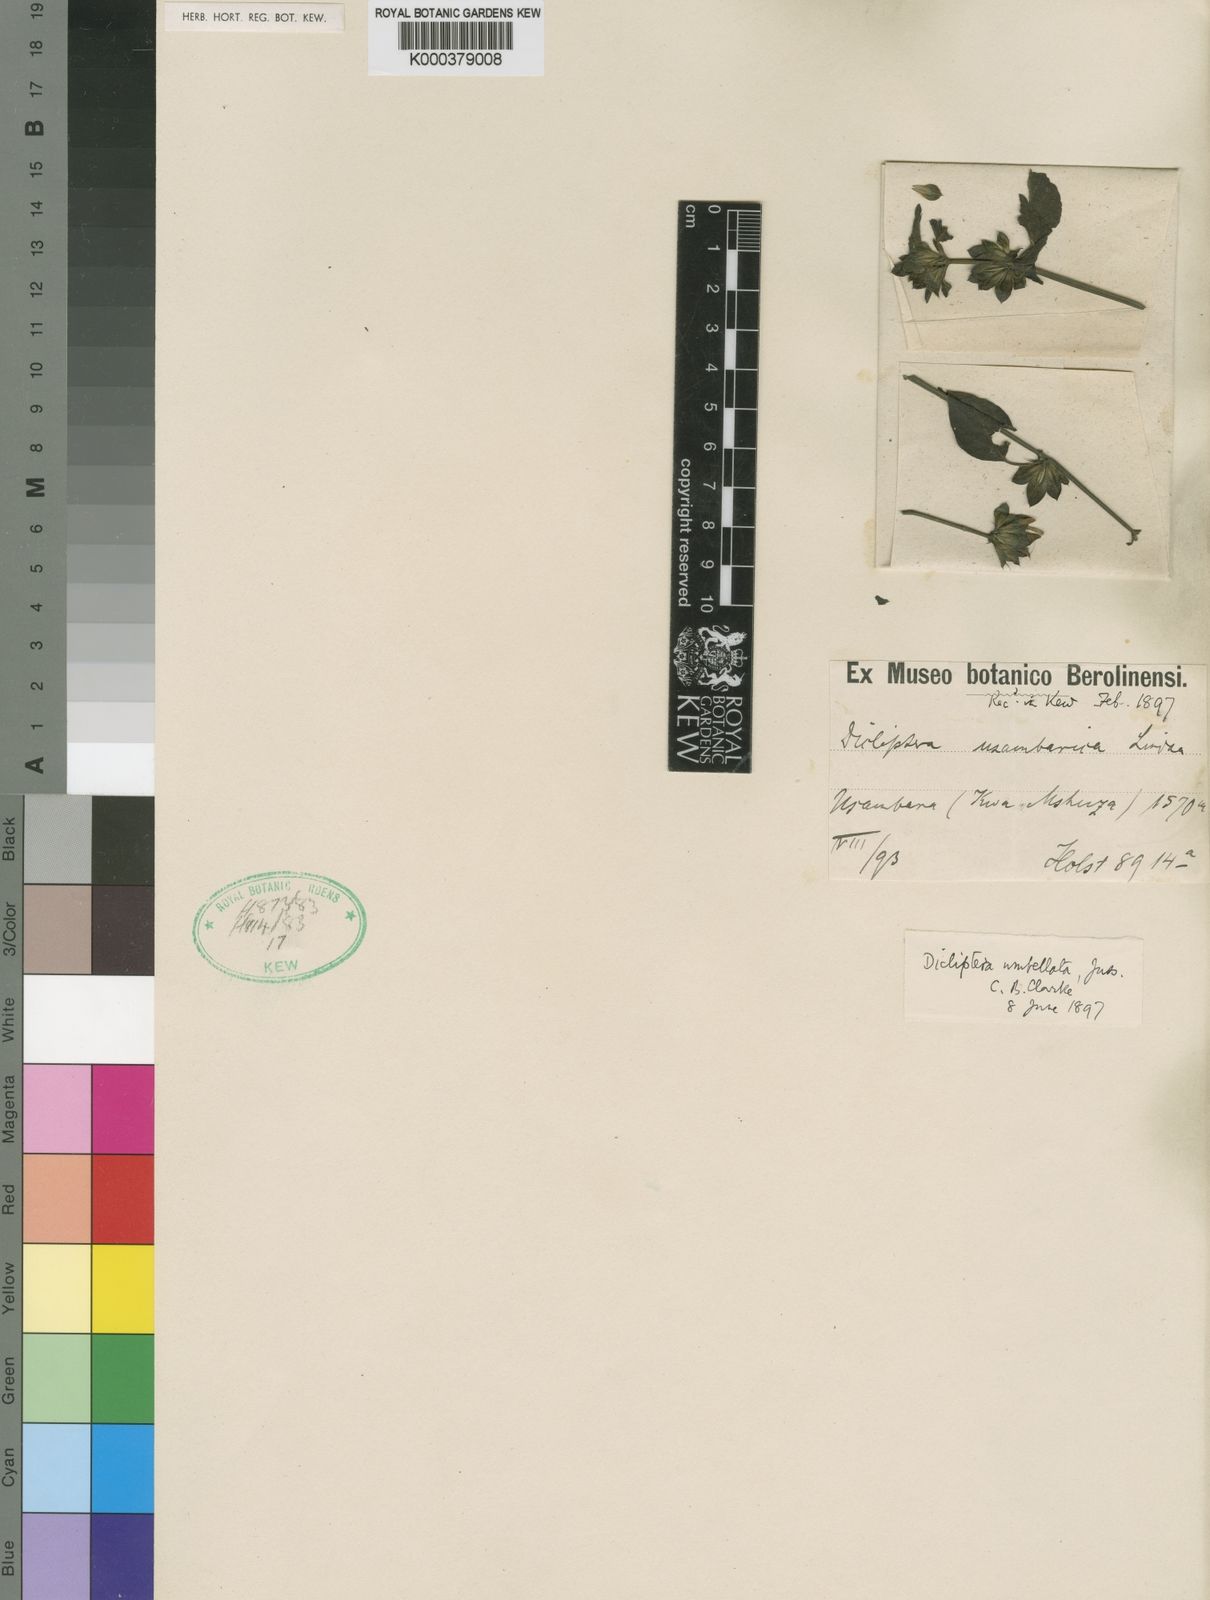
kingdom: Plantae
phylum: Tracheophyta
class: Magnoliopsida
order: Lamiales
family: Acanthaceae
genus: Dicliptera
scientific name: Dicliptera maculata
